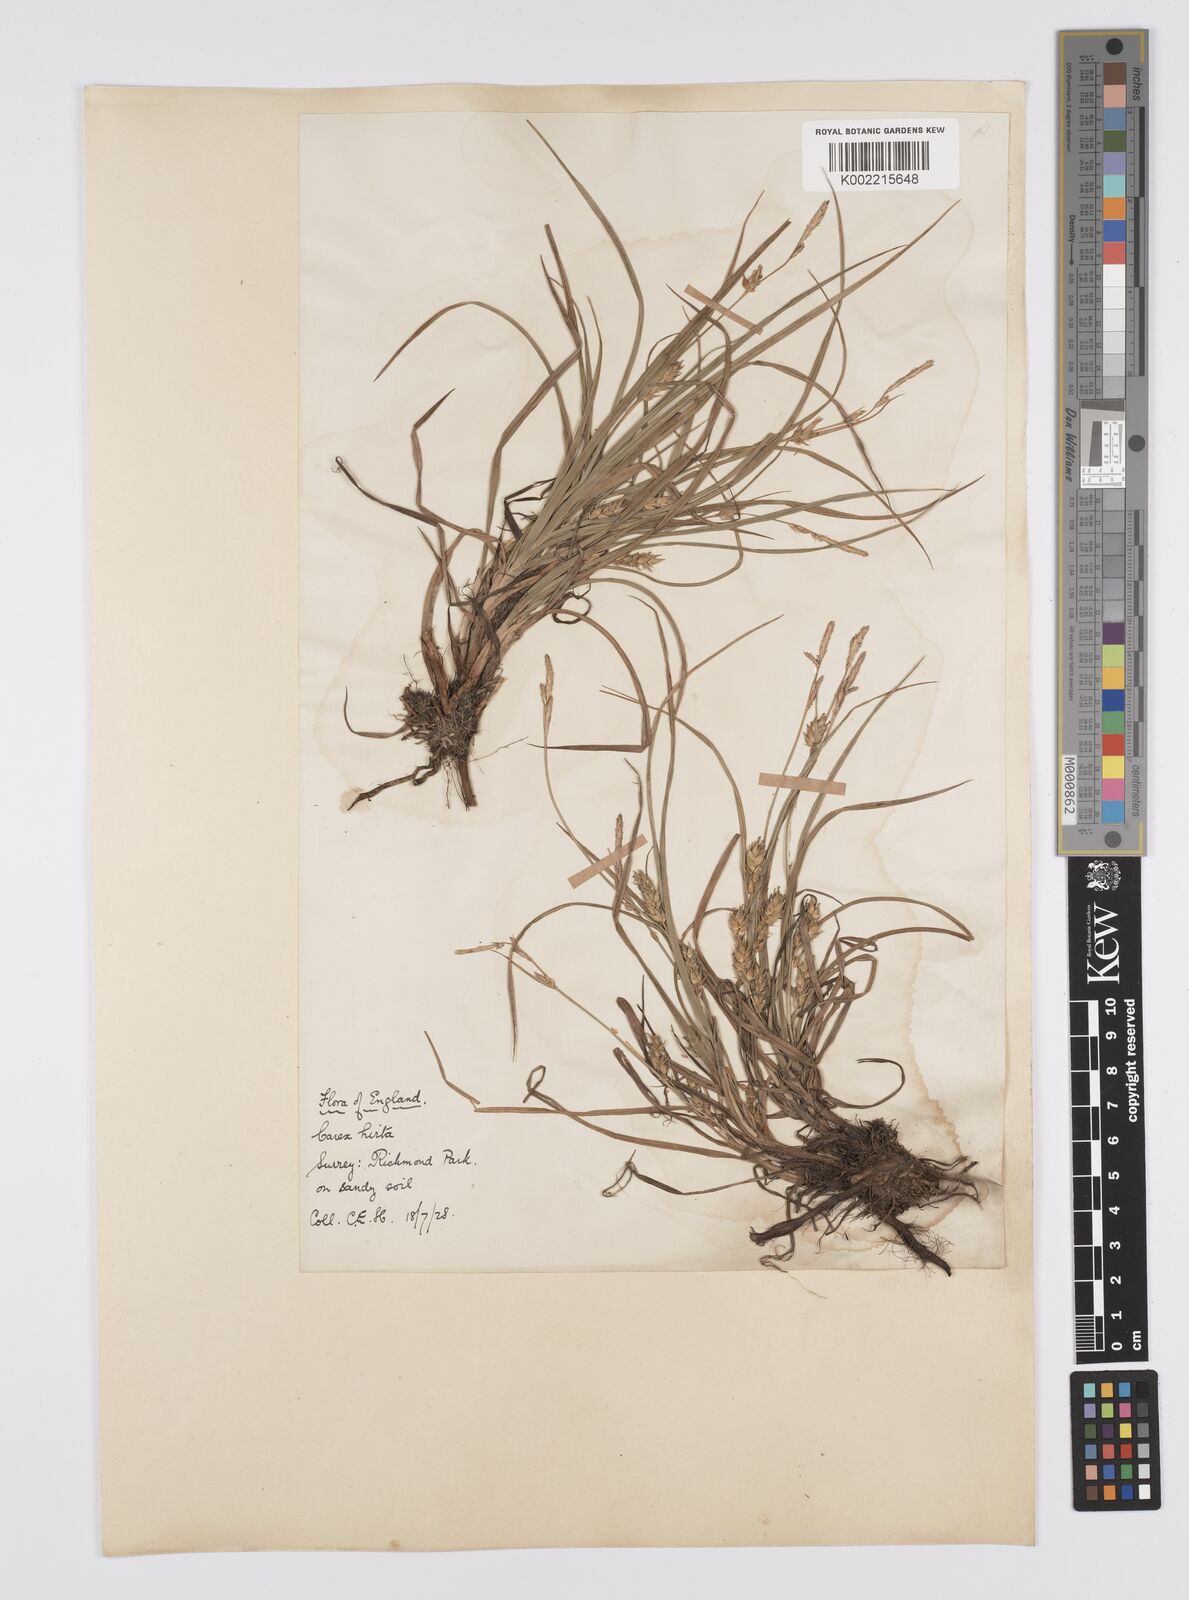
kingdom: Plantae
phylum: Tracheophyta
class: Liliopsida
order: Poales
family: Cyperaceae
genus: Carex
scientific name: Carex hirta
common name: Hairy sedge
